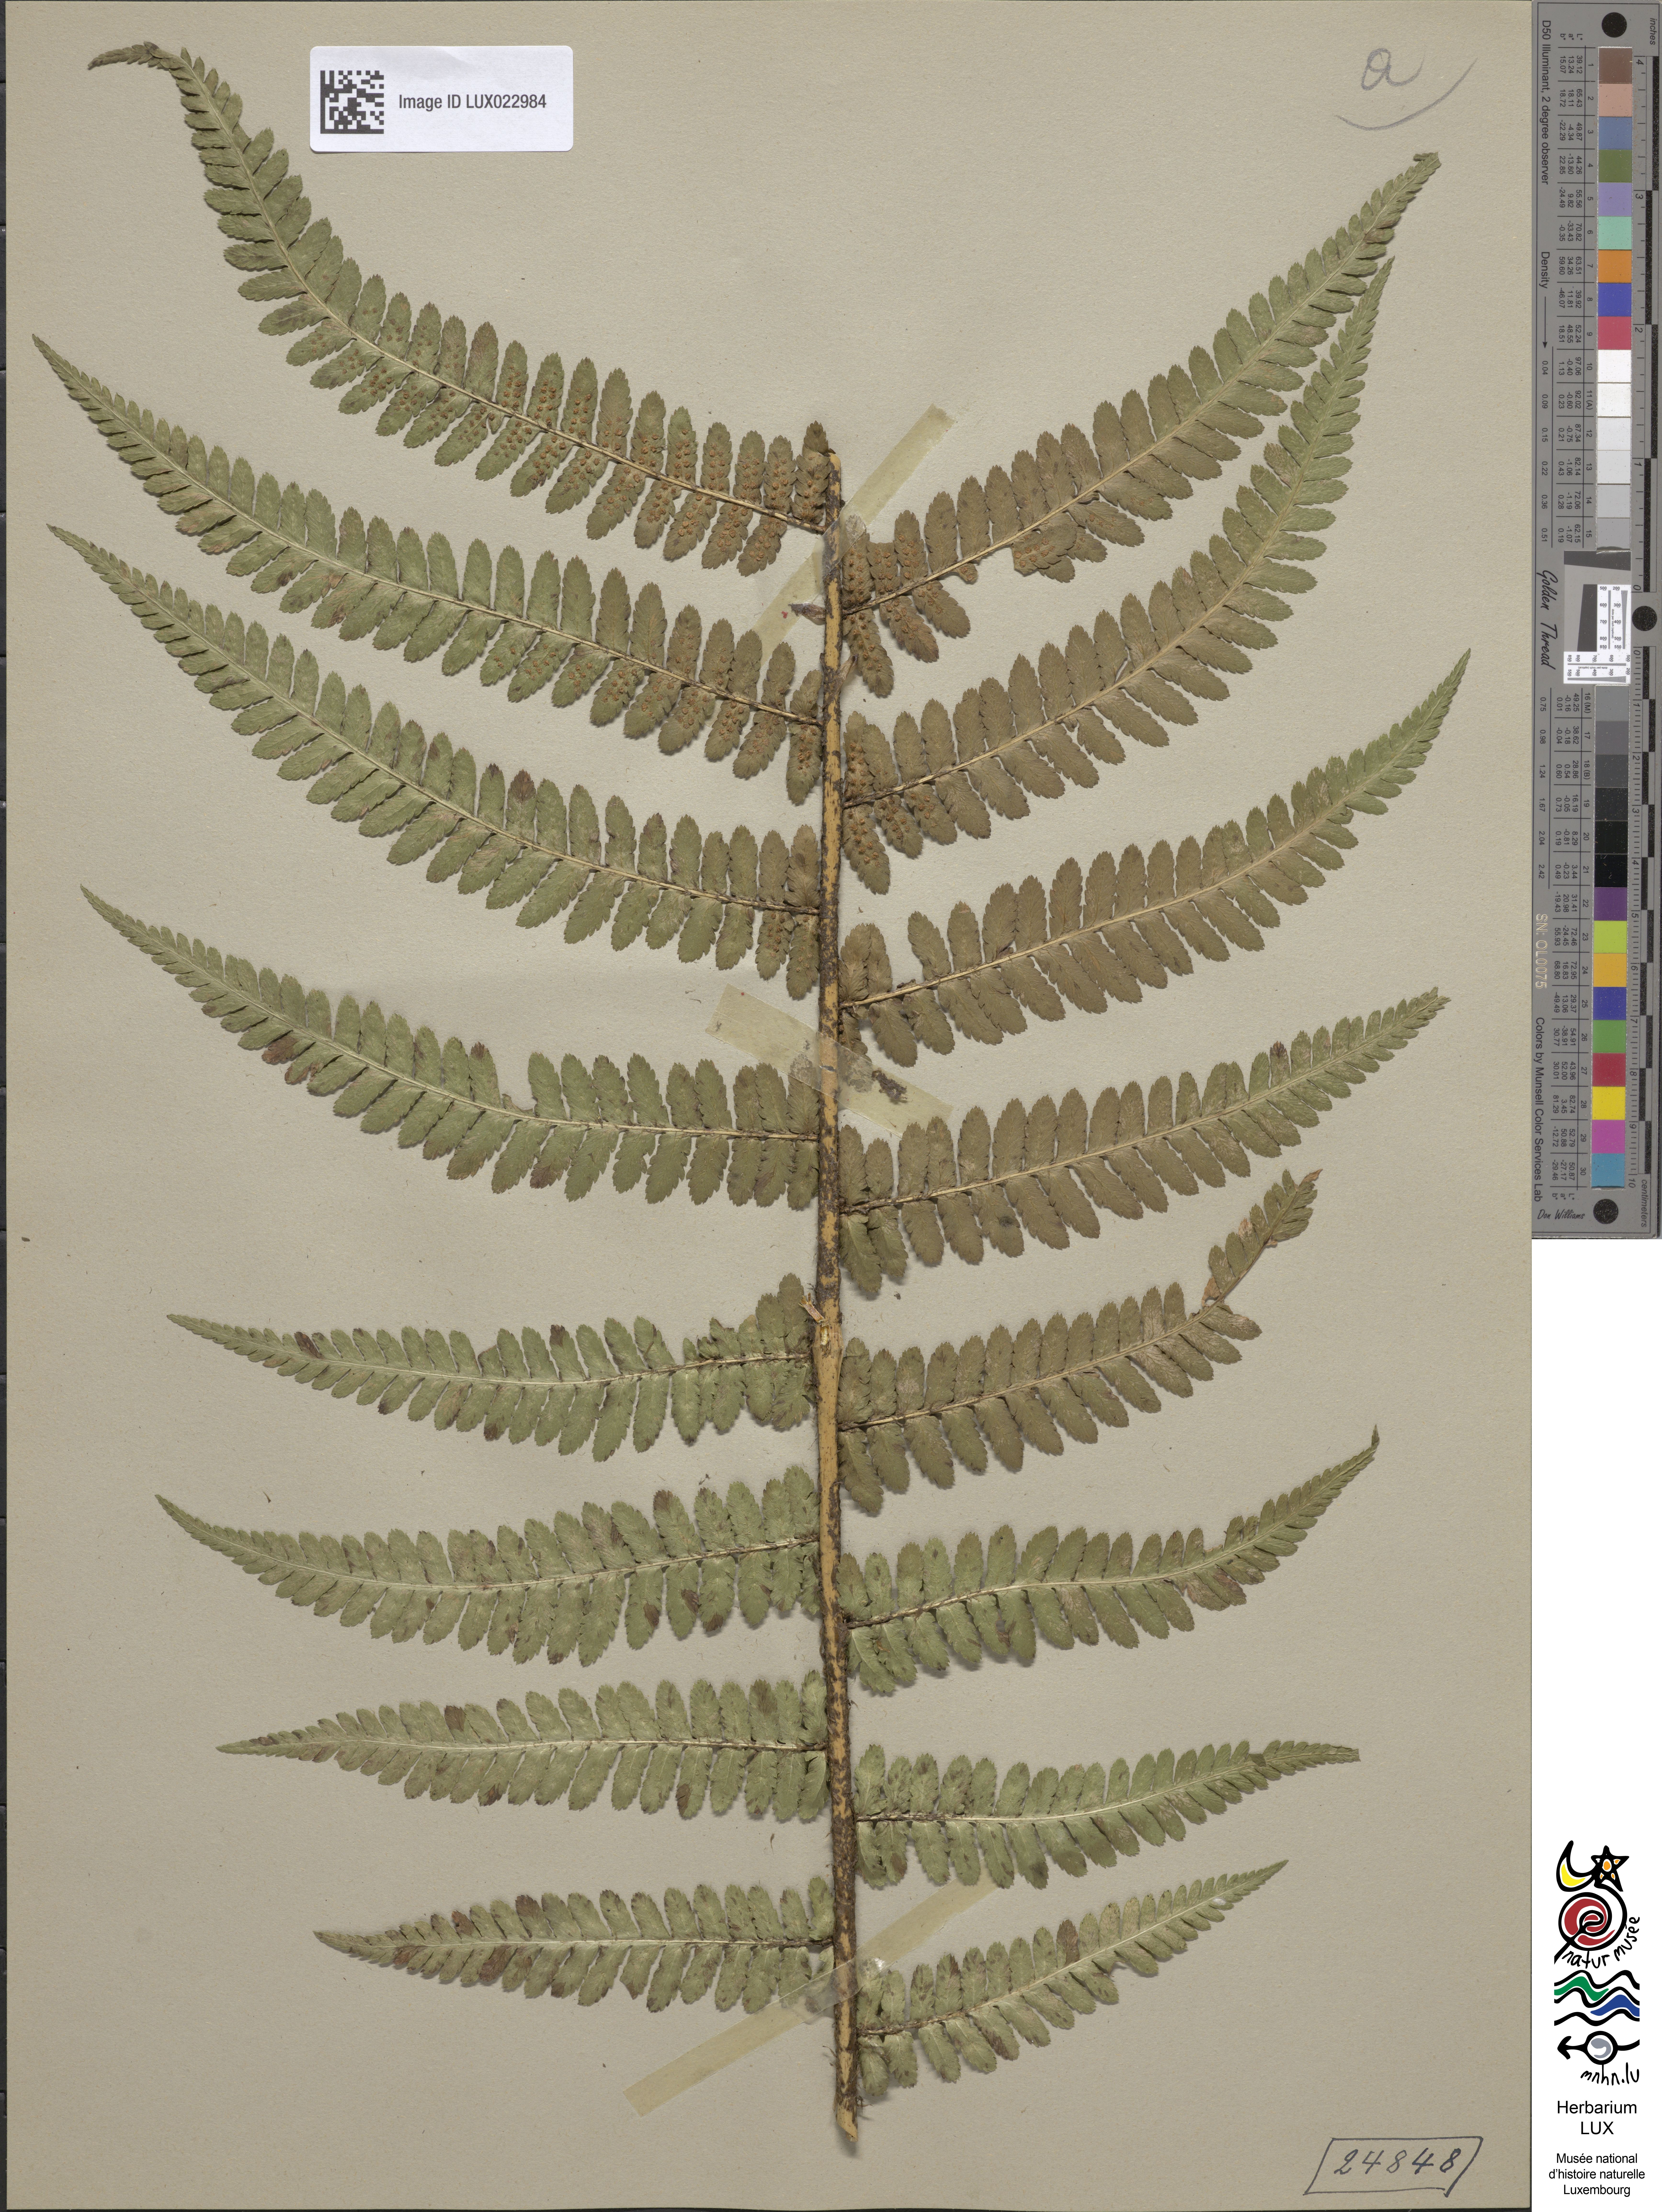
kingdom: Plantae
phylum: Tracheophyta
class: Polypodiopsida
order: Polypodiales
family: Dryopteridaceae
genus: Dryopteris
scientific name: Dryopteris filix-mas
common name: Male fern
